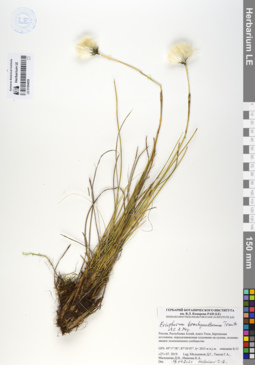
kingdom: Plantae
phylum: Tracheophyta
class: Liliopsida
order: Poales
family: Cyperaceae
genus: Eriophorum
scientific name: Eriophorum brachyantherum
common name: Closed-sheathed cottongrass
